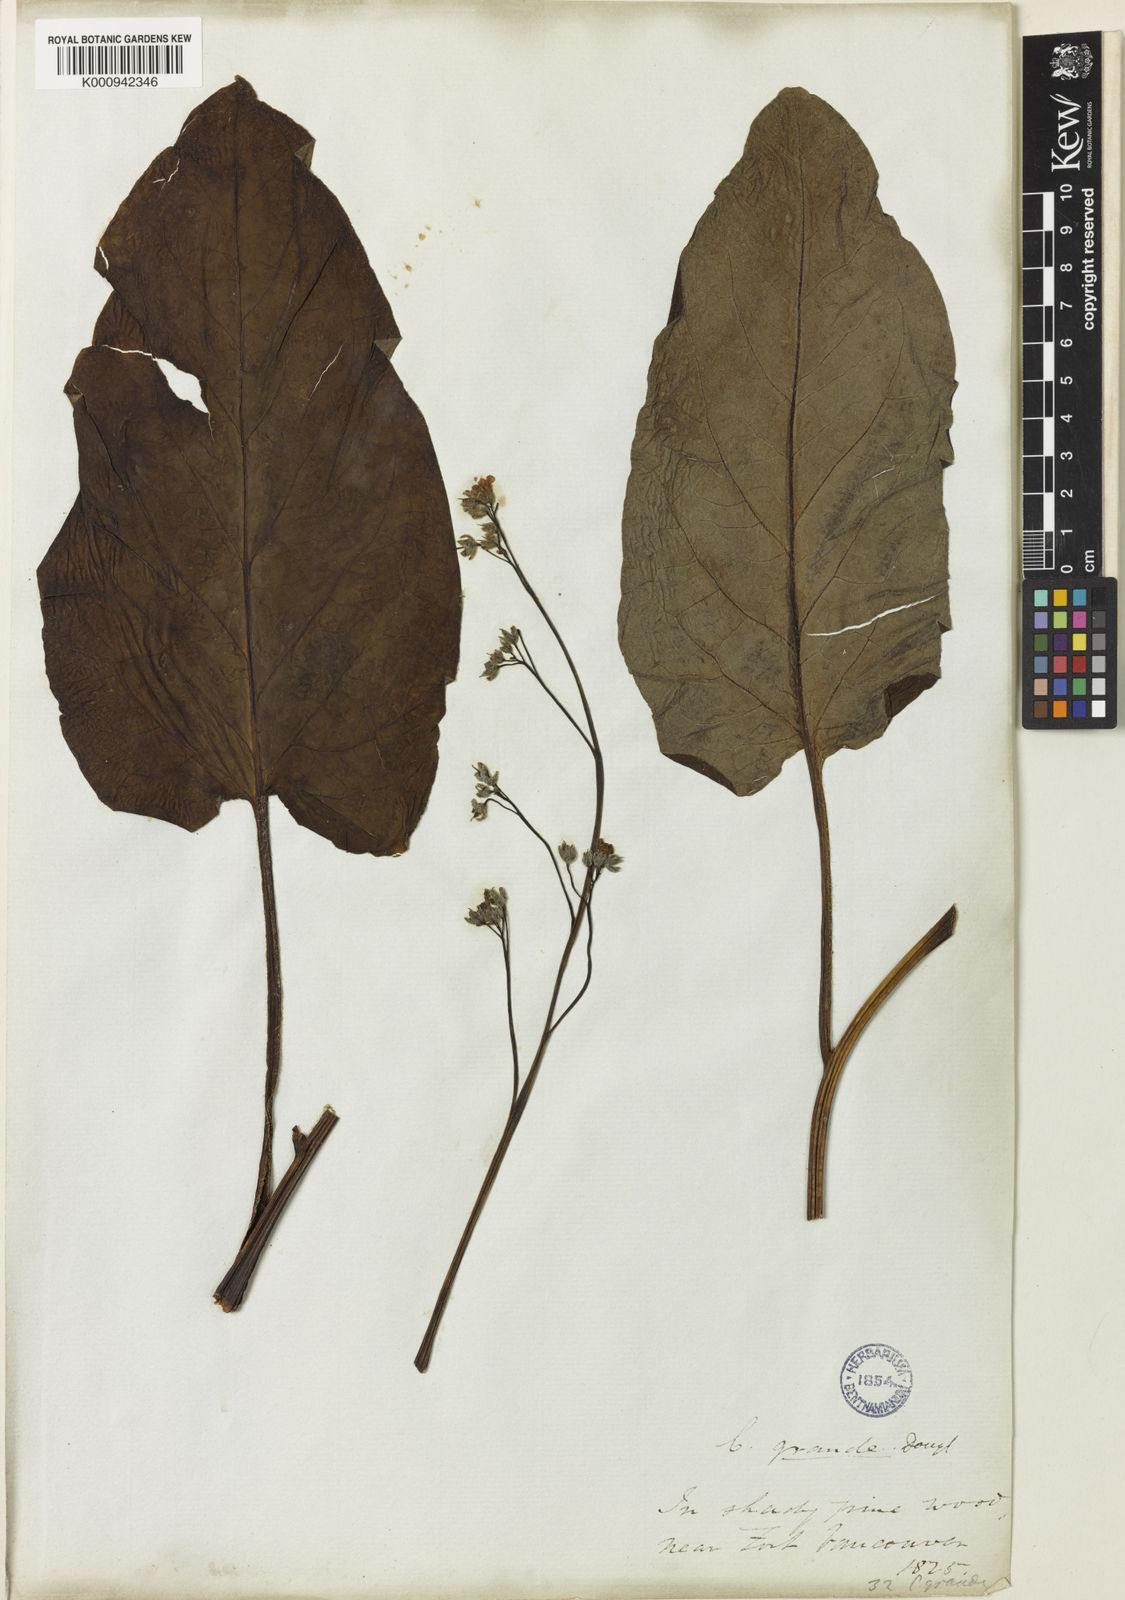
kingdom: Plantae
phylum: Tracheophyta
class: Magnoliopsida
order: Boraginales
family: Boraginaceae
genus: Adelinia
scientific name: Adelinia grande
